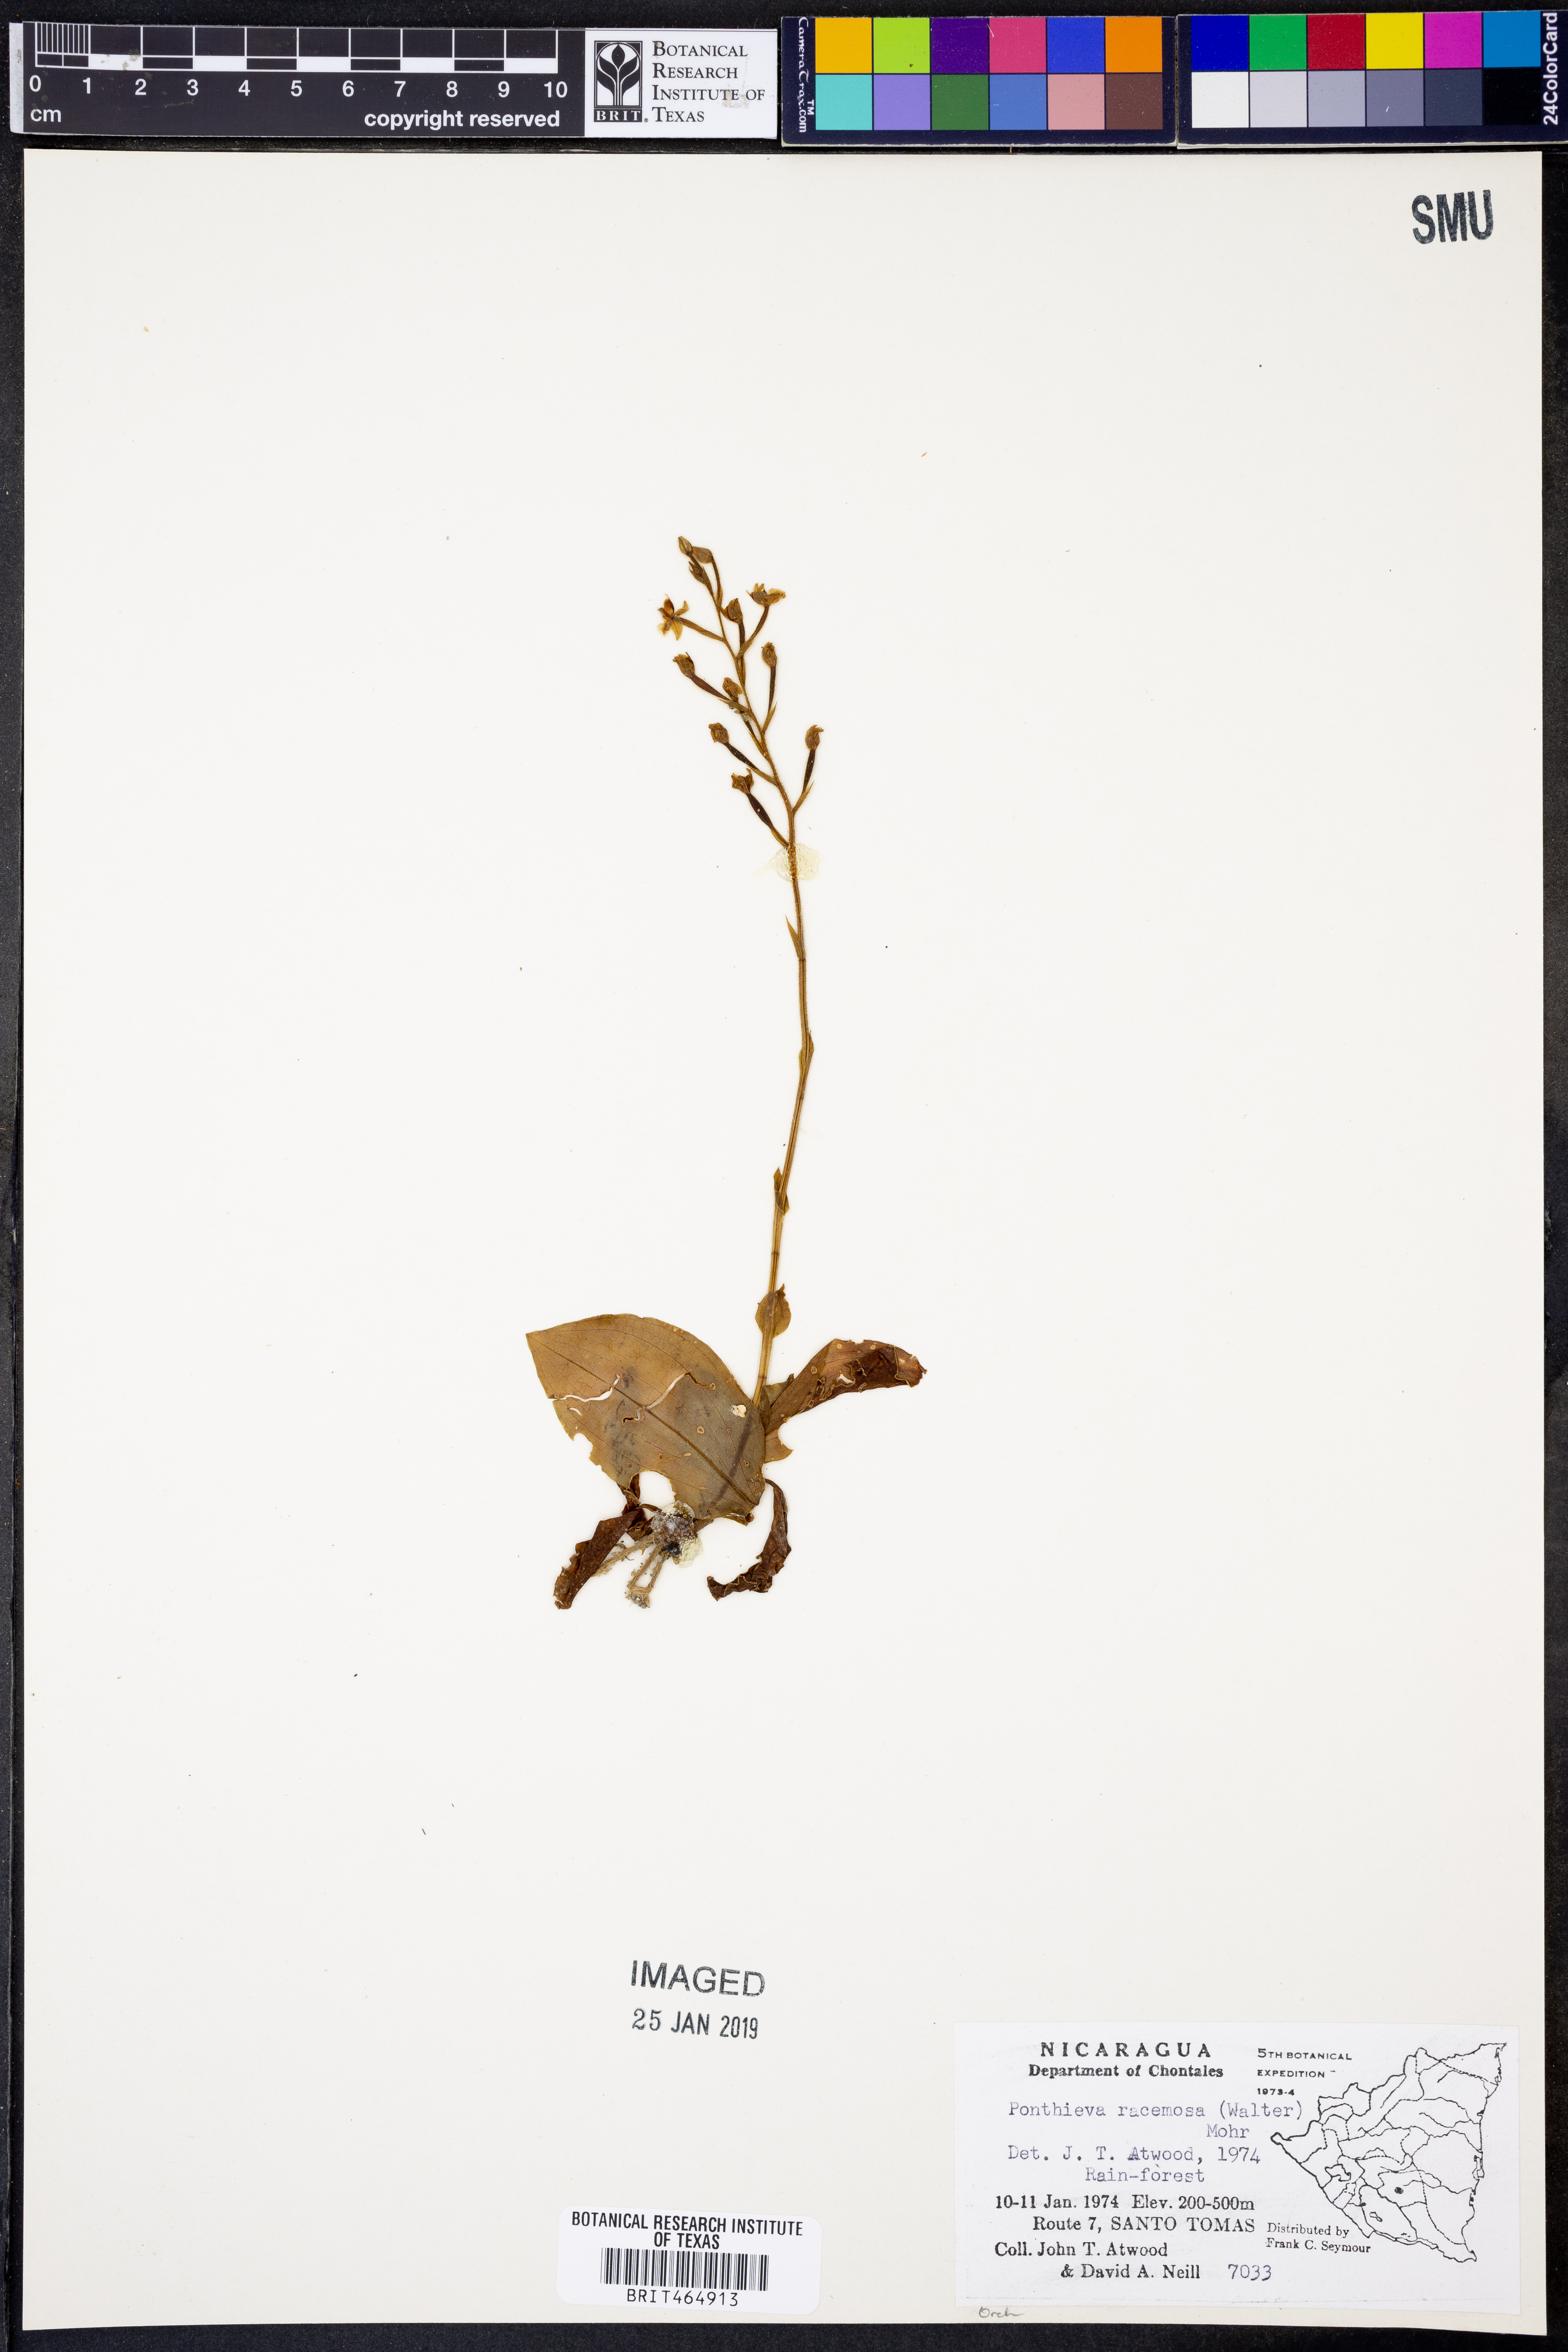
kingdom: Plantae
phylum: Tracheophyta
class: Liliopsida
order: Asparagales
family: Orchidaceae
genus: Ponthieva
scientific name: Ponthieva racemosa
